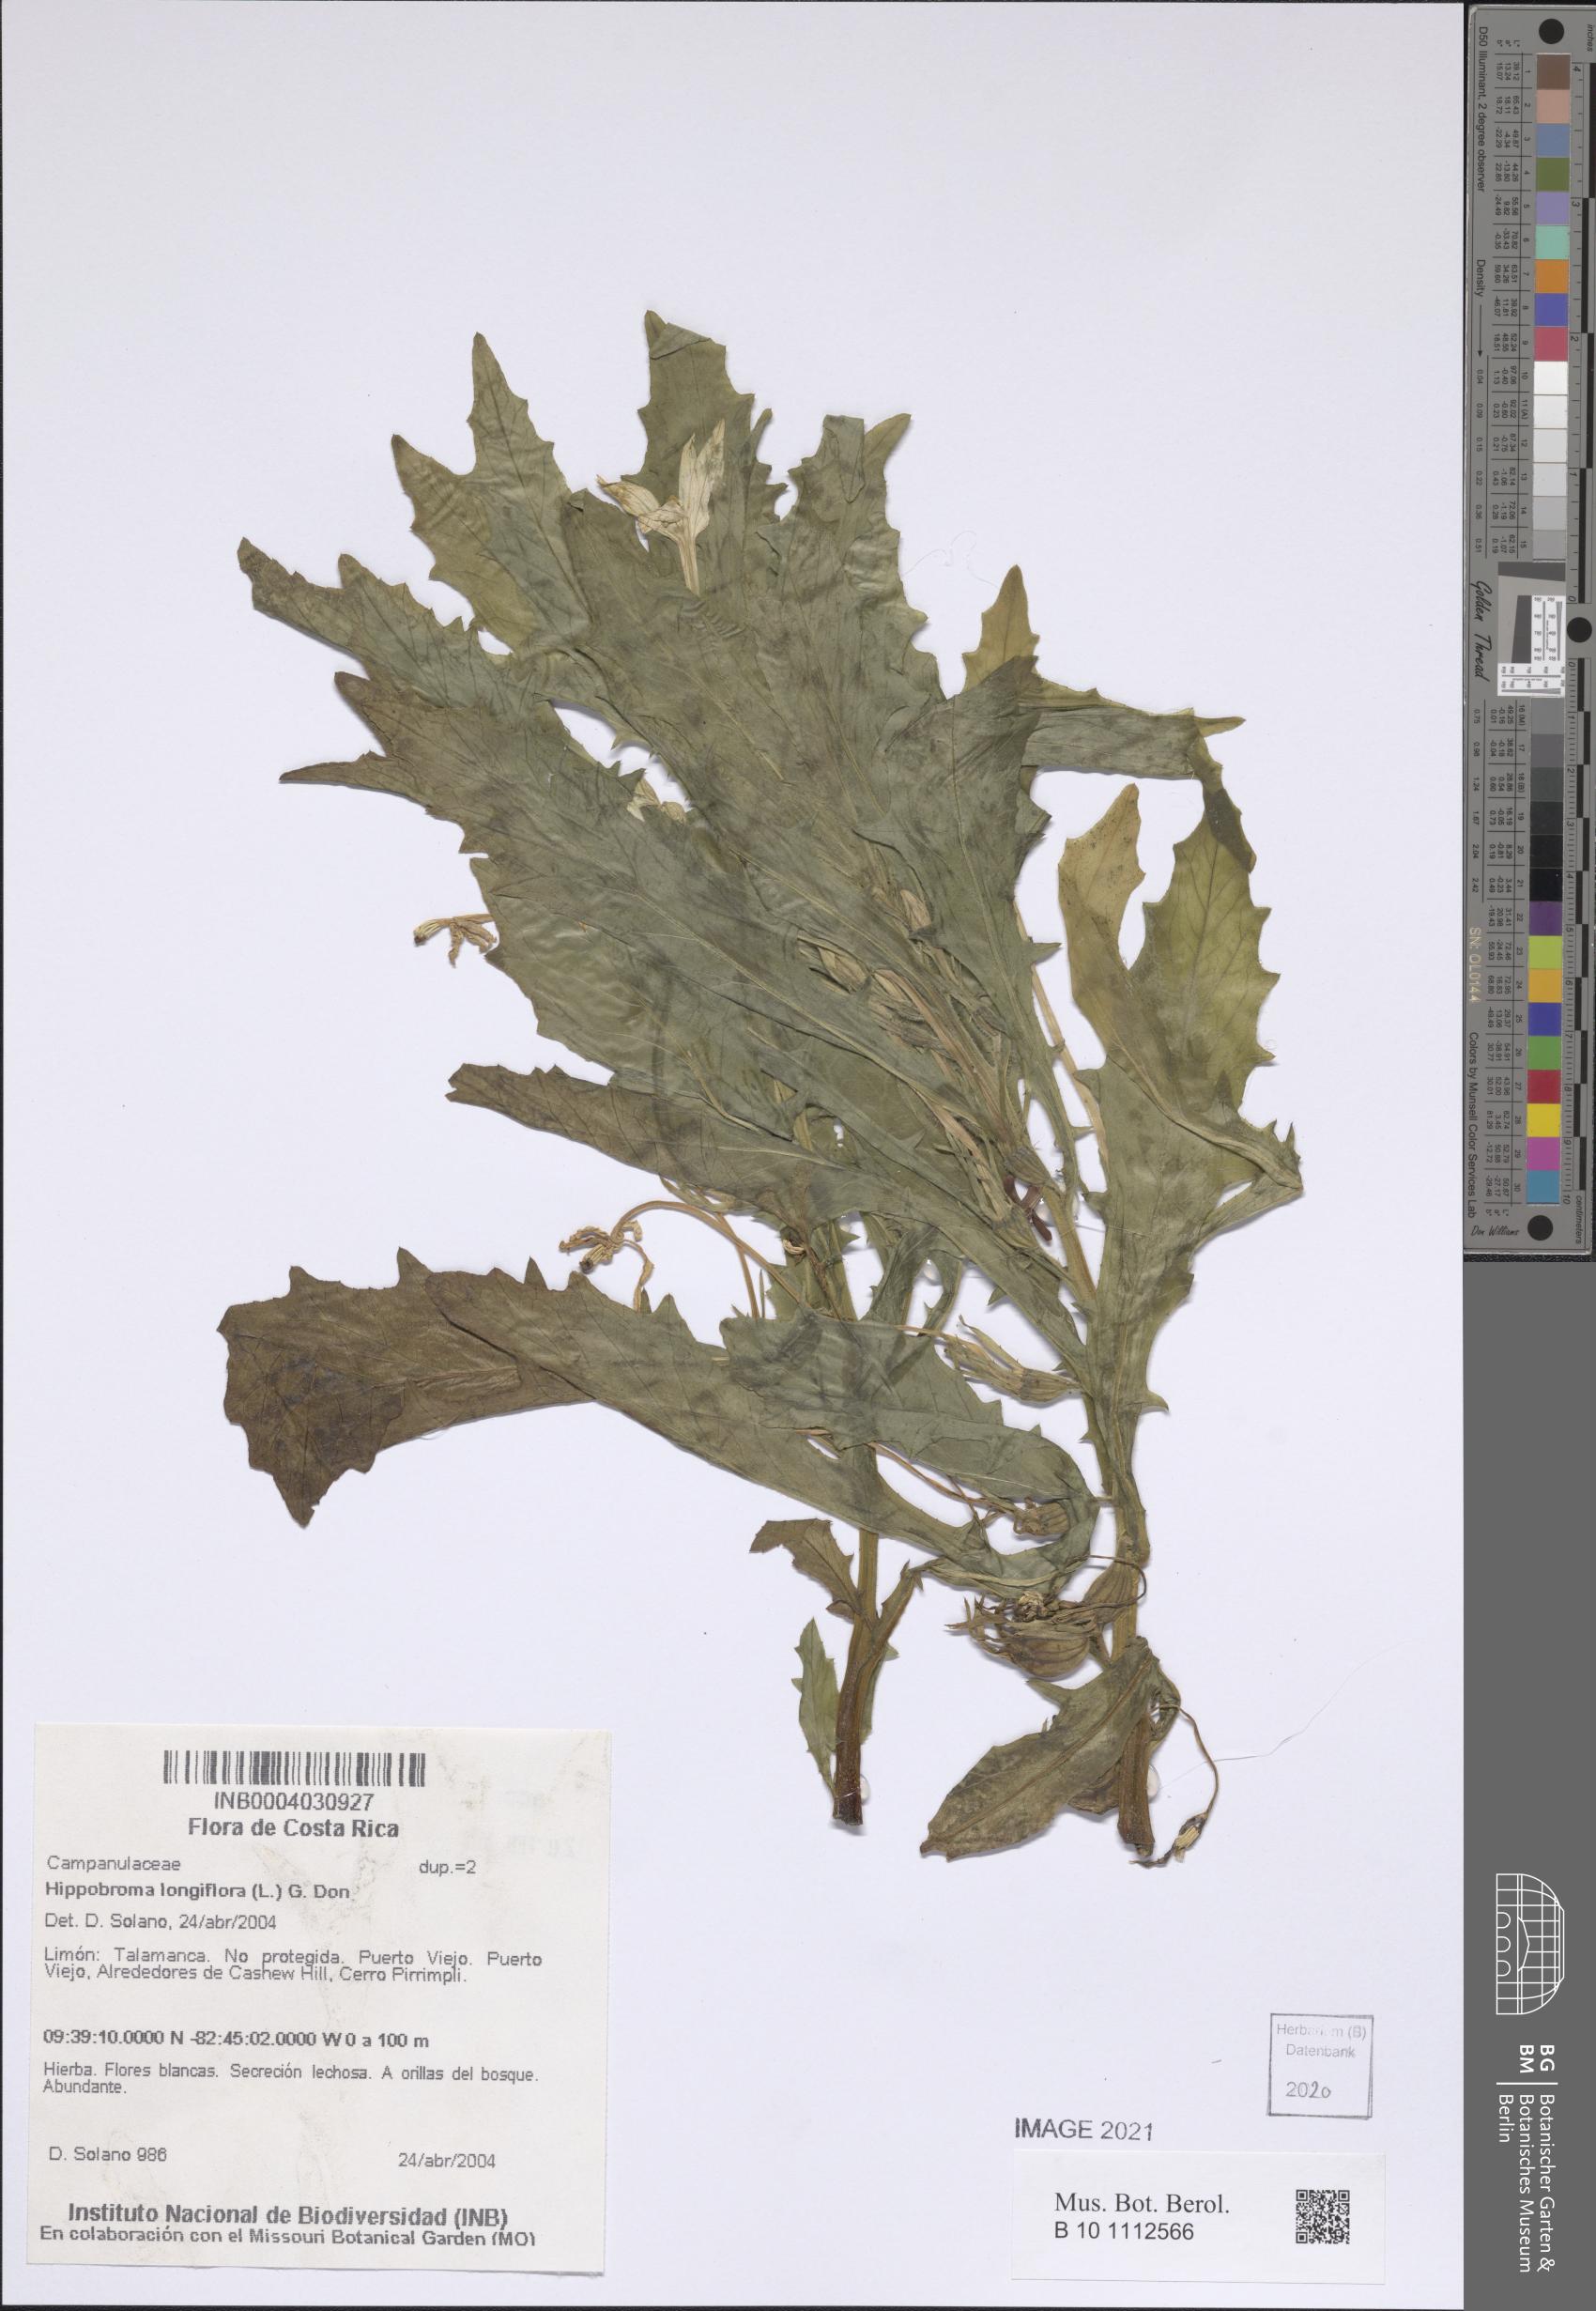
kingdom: Plantae
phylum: Tracheophyta
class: Magnoliopsida
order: Asterales
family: Campanulaceae
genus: Hippobroma
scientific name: Hippobroma longiflora
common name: Madamfate
